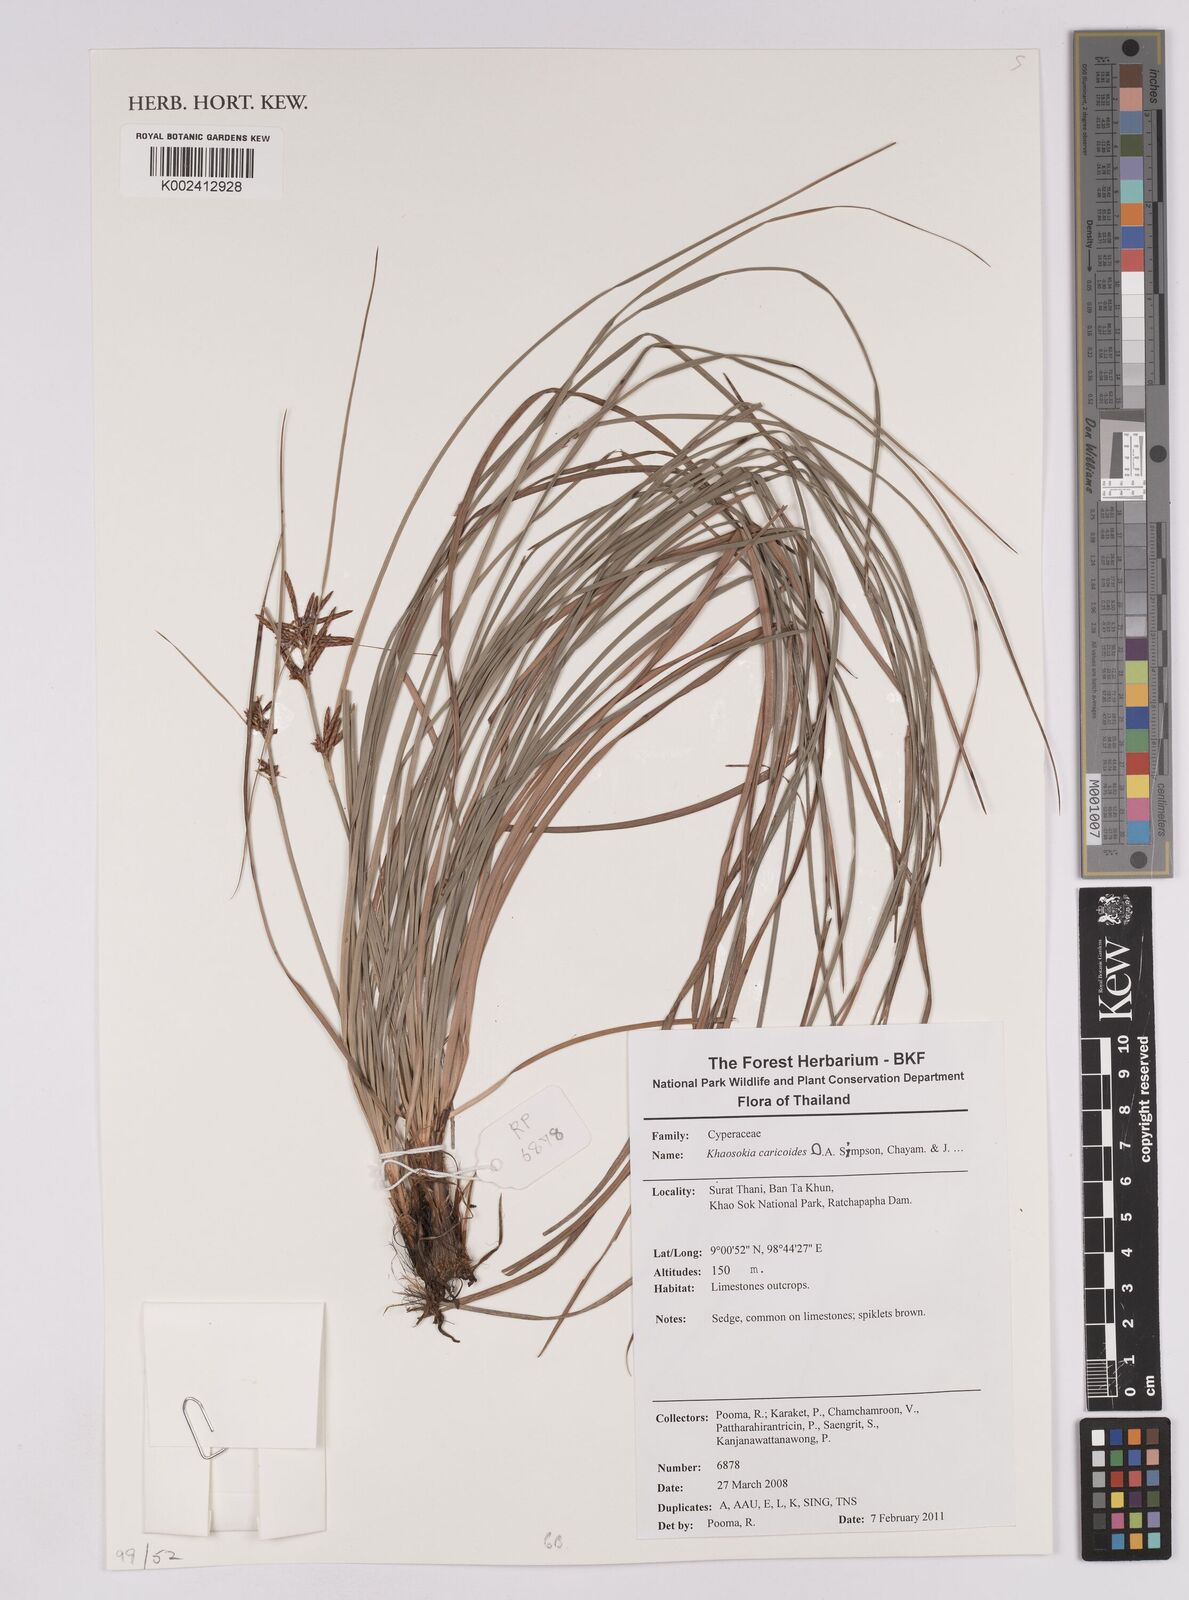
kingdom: Plantae
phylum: Tracheophyta
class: Liliopsida
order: Poales
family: Cyperaceae
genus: Khaosokia
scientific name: Khaosokia caricoides
